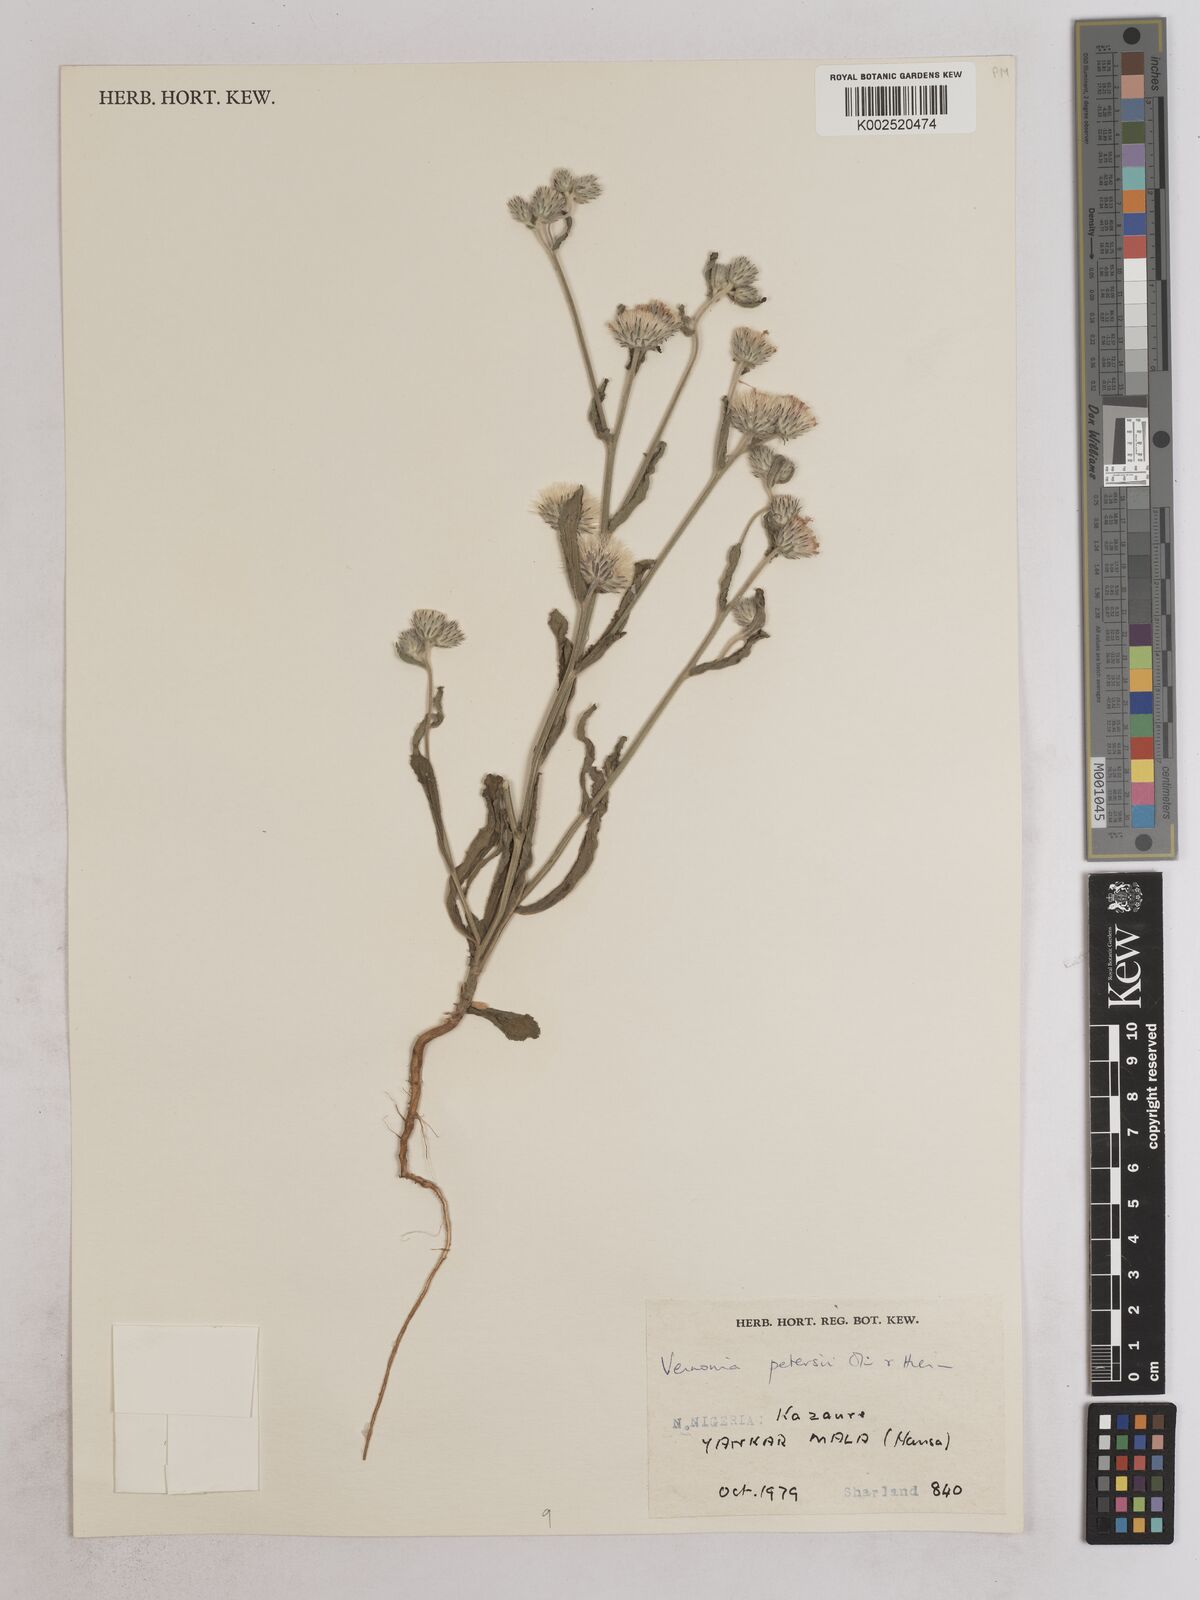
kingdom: Plantae
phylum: Tracheophyta
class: Magnoliopsida
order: Asterales
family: Asteraceae
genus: Vernoniastrum
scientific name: Vernoniastrum ambiguum
